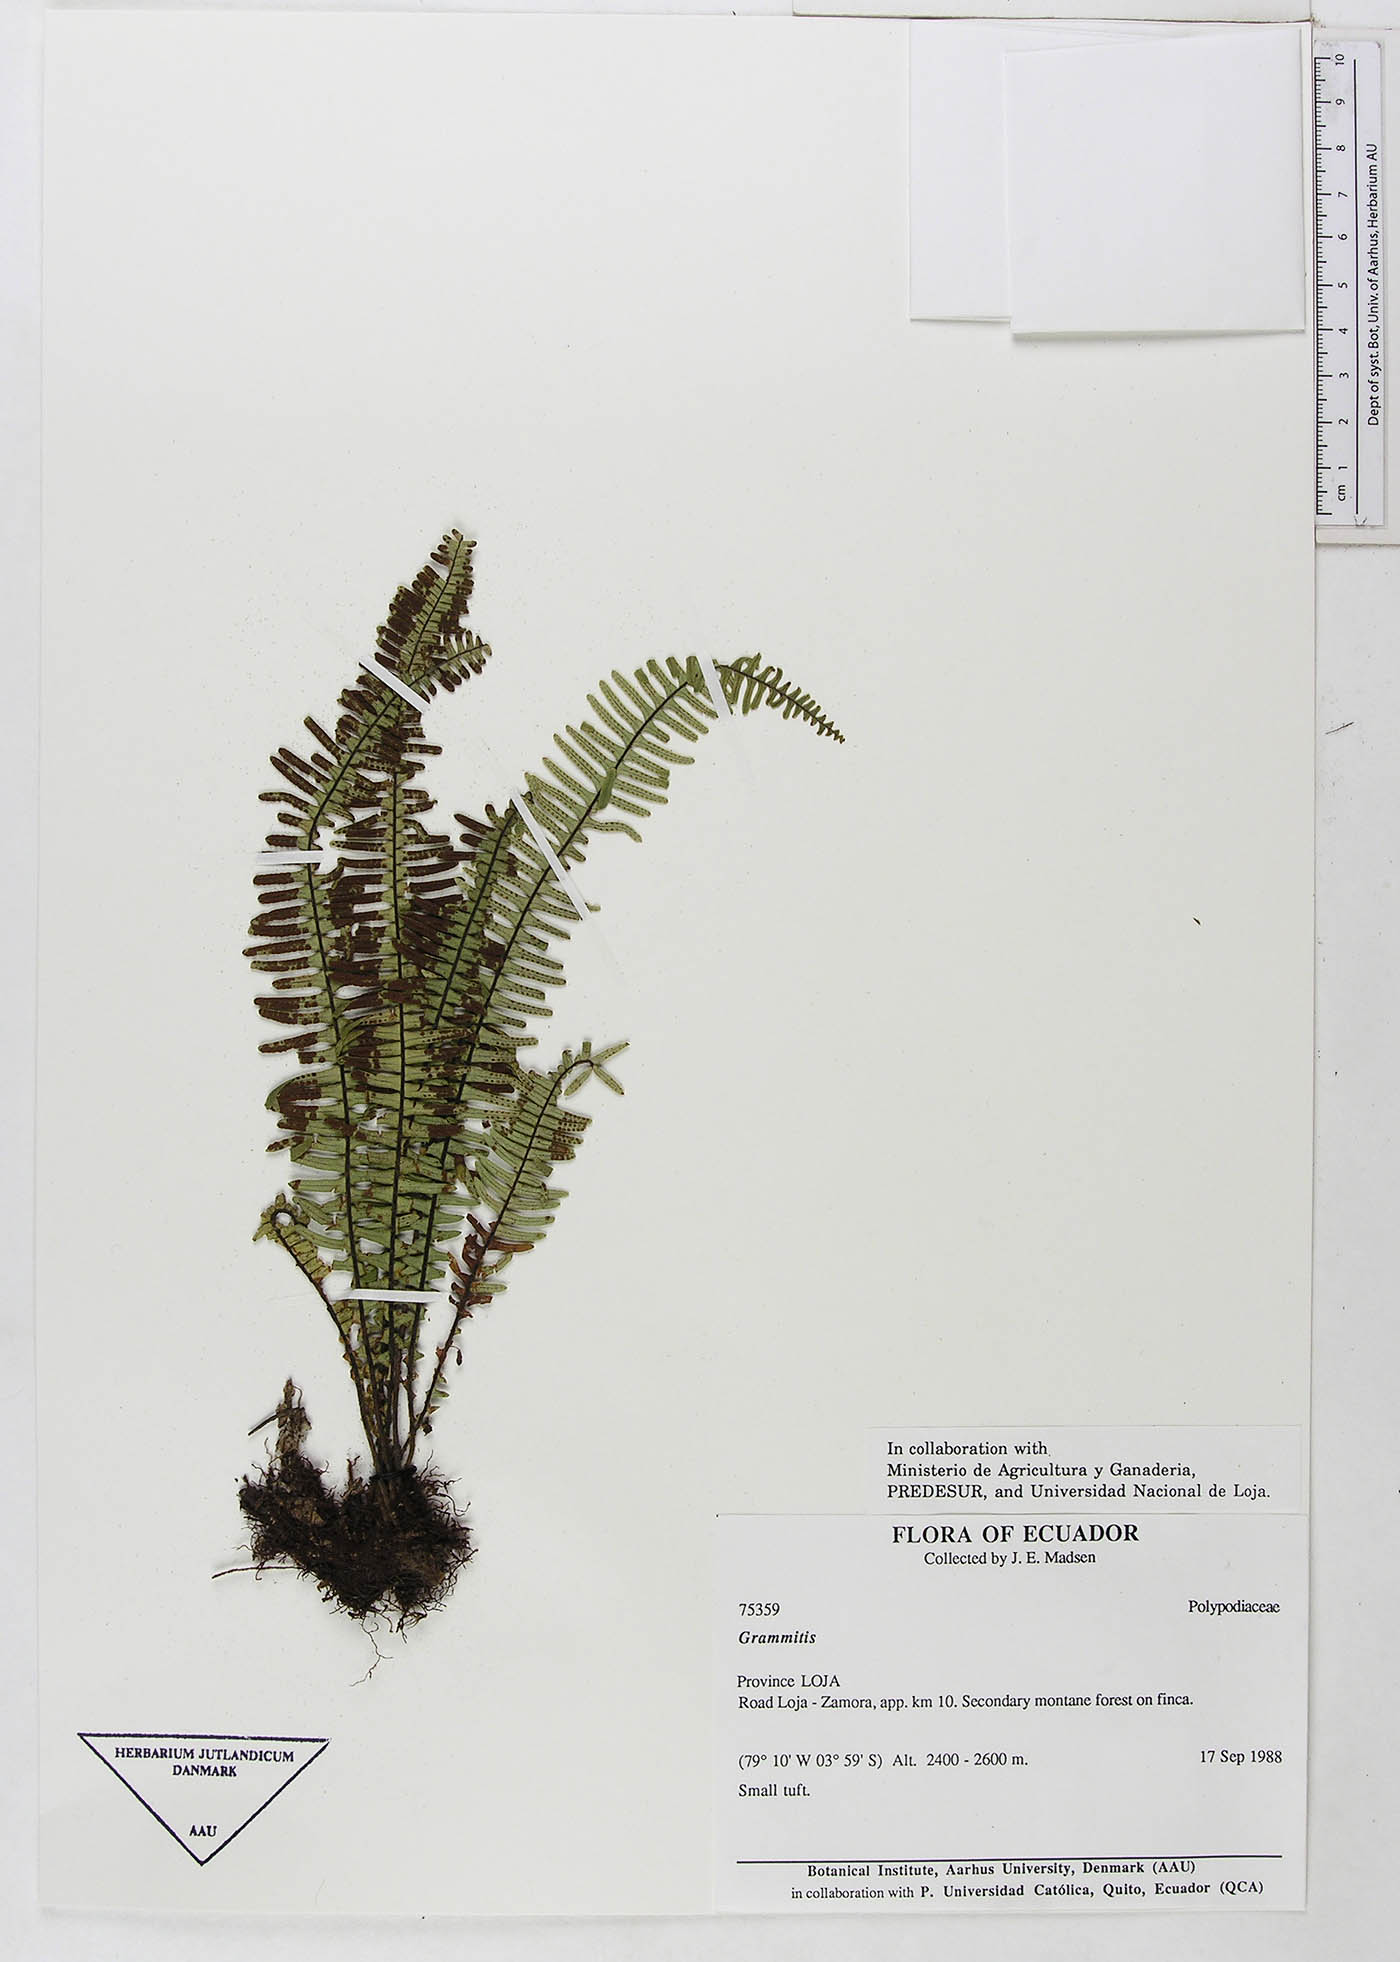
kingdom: Plantae
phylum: Tracheophyta
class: Polypodiopsida
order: Polypodiales
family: Polypodiaceae
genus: Lellingeria
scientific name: Lellingeria major
